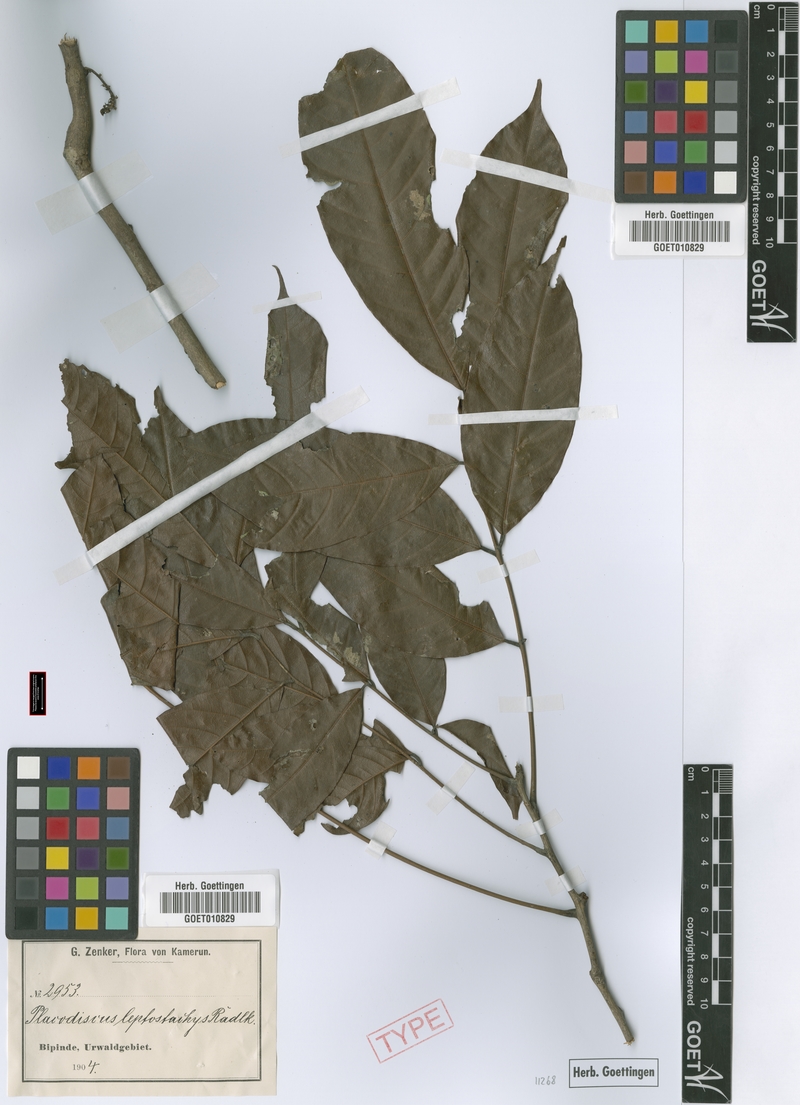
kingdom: Plantae
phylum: Tracheophyta
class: Magnoliopsida
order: Sapindales
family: Sapindaceae
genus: Placodiscus
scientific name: Placodiscus glandulosus
